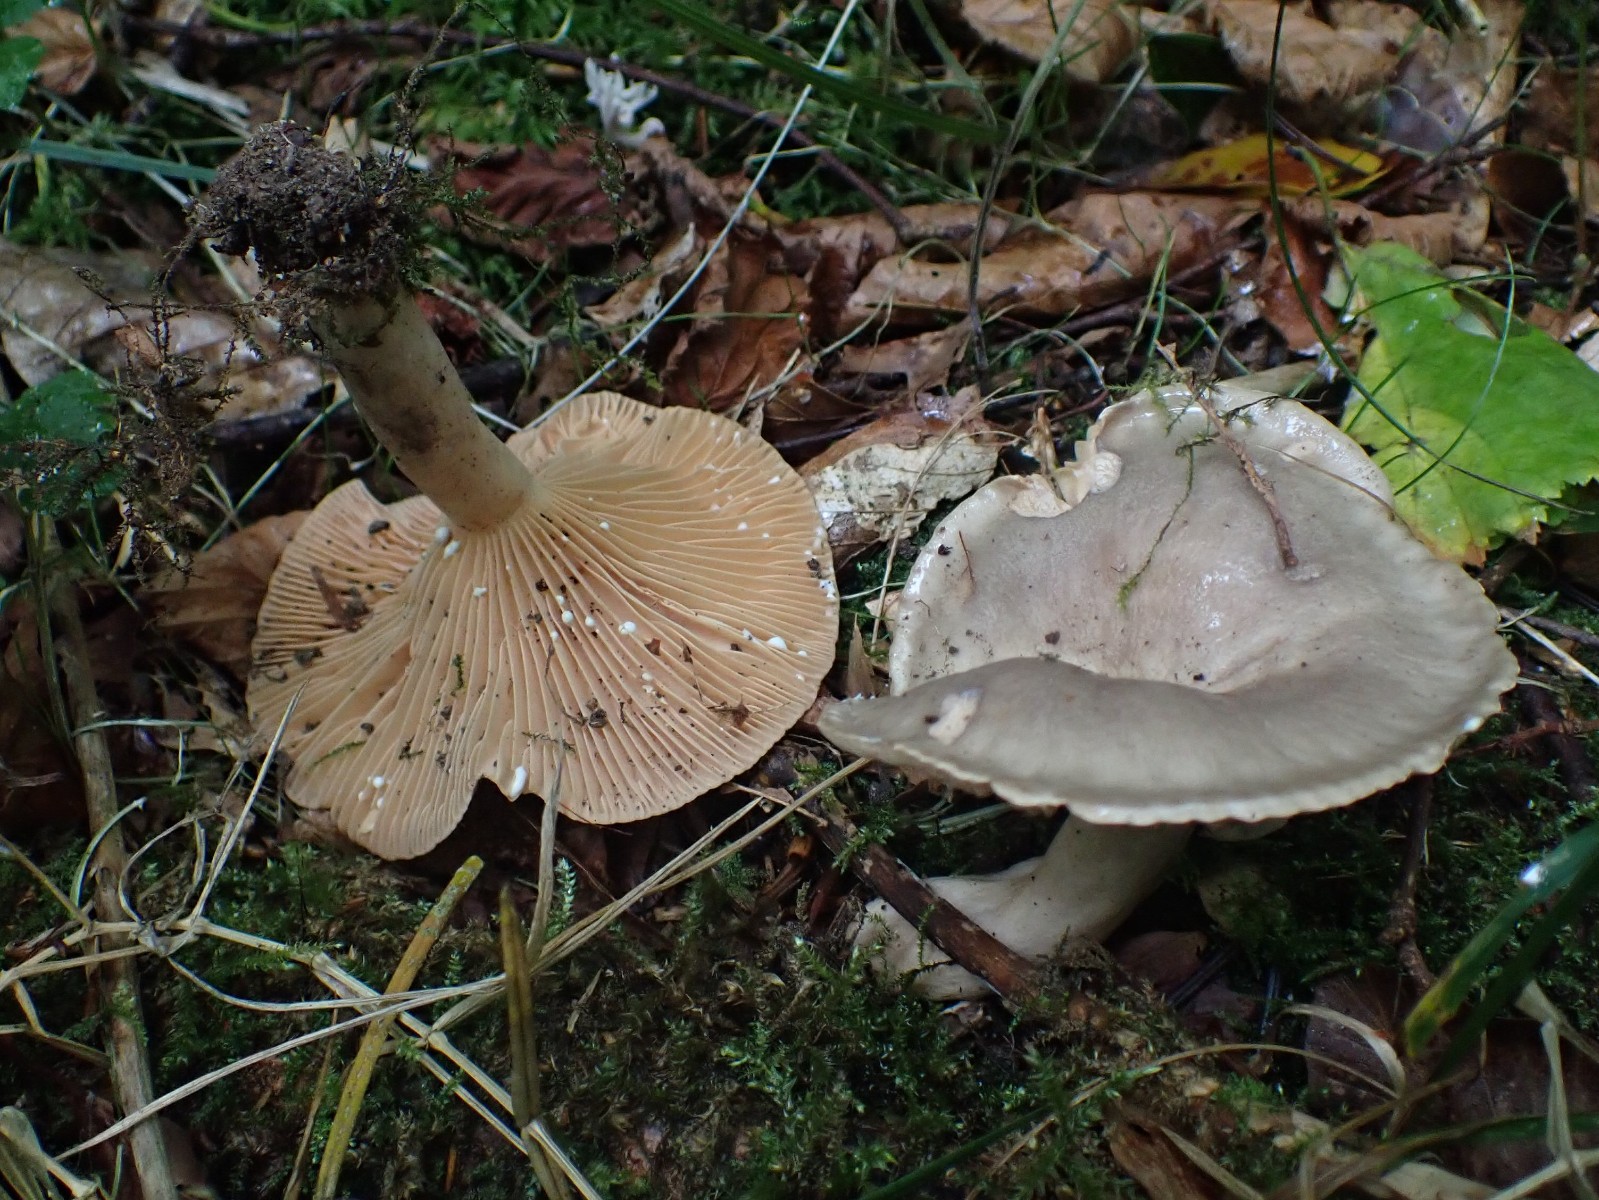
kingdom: Fungi
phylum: Basidiomycota
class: Agaricomycetes
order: Russulales
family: Russulaceae
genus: Lactarius
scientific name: Lactarius pyrogalus
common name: hassel-mælkehat
